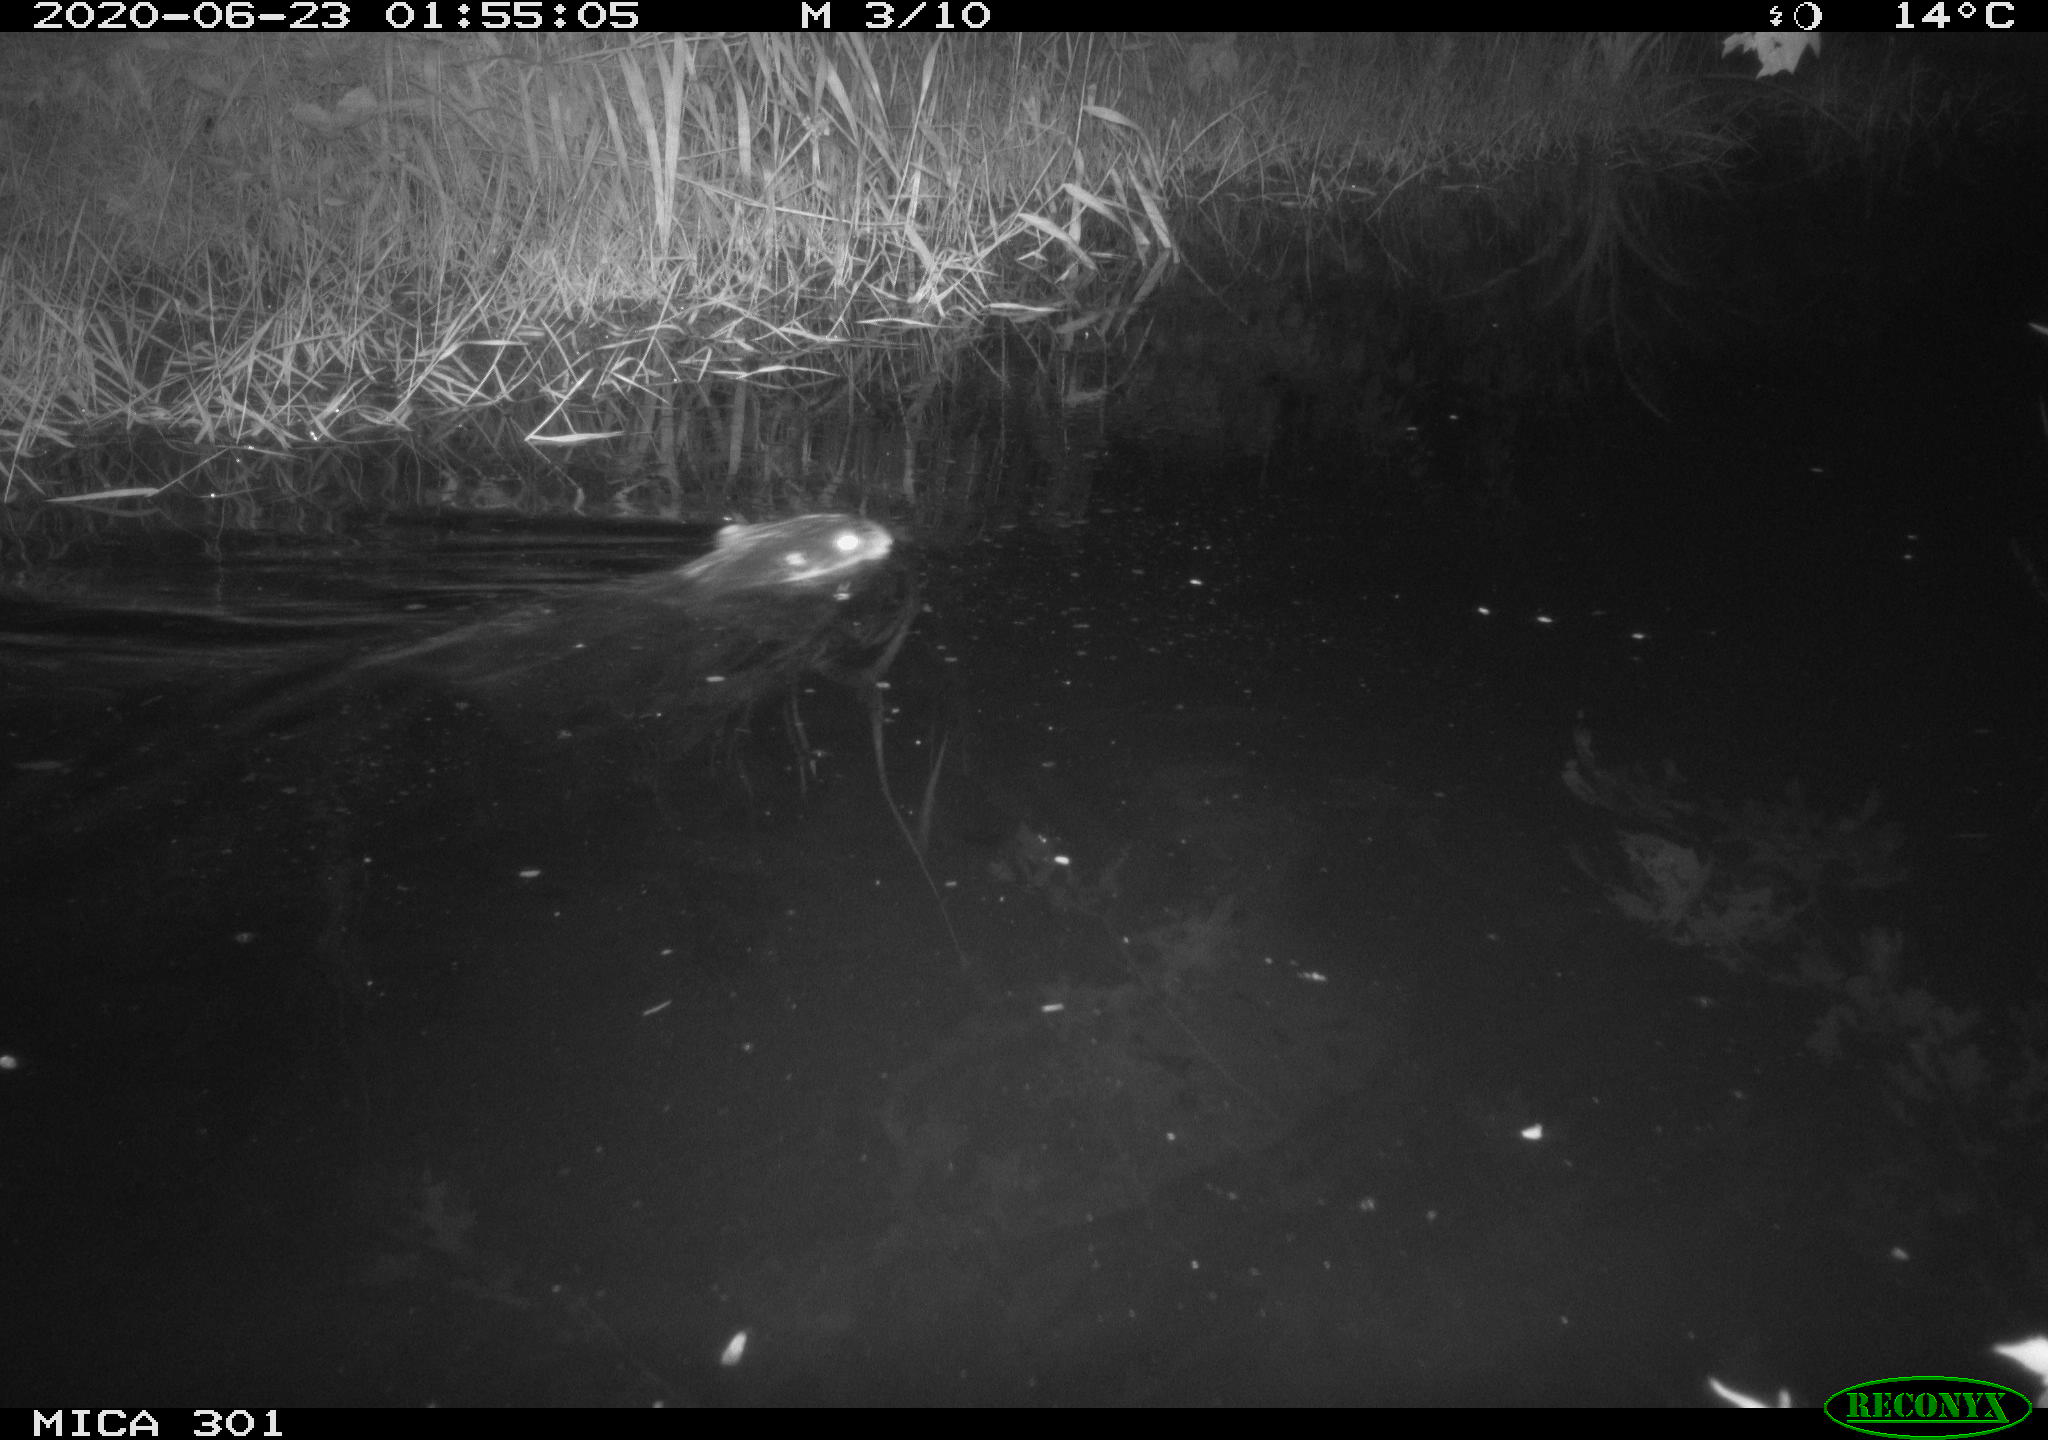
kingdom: Animalia
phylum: Chordata
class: Mammalia
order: Rodentia
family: Castoridae
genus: Castor
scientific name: Castor fiber
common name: Eurasian beaver
